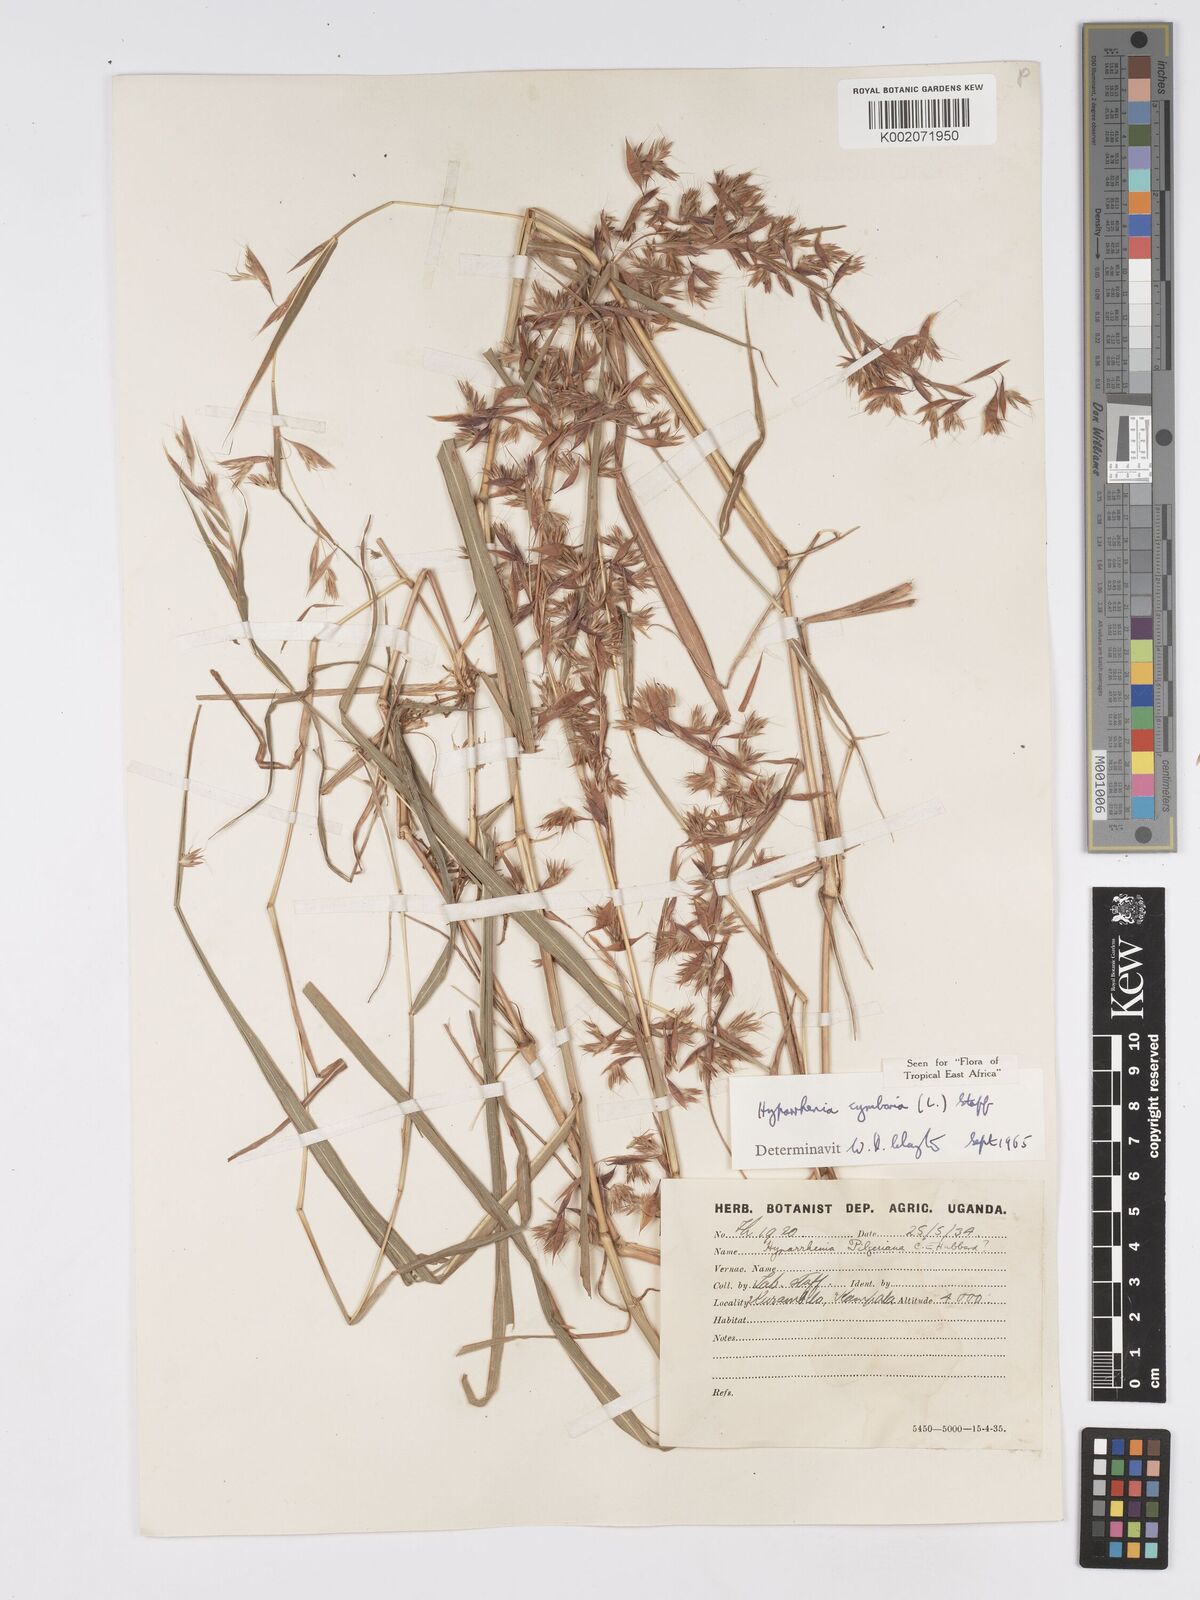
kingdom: Plantae
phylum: Tracheophyta
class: Liliopsida
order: Poales
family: Poaceae
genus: Hyparrhenia
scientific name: Hyparrhenia cymbaria
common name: Boat thatching grass
